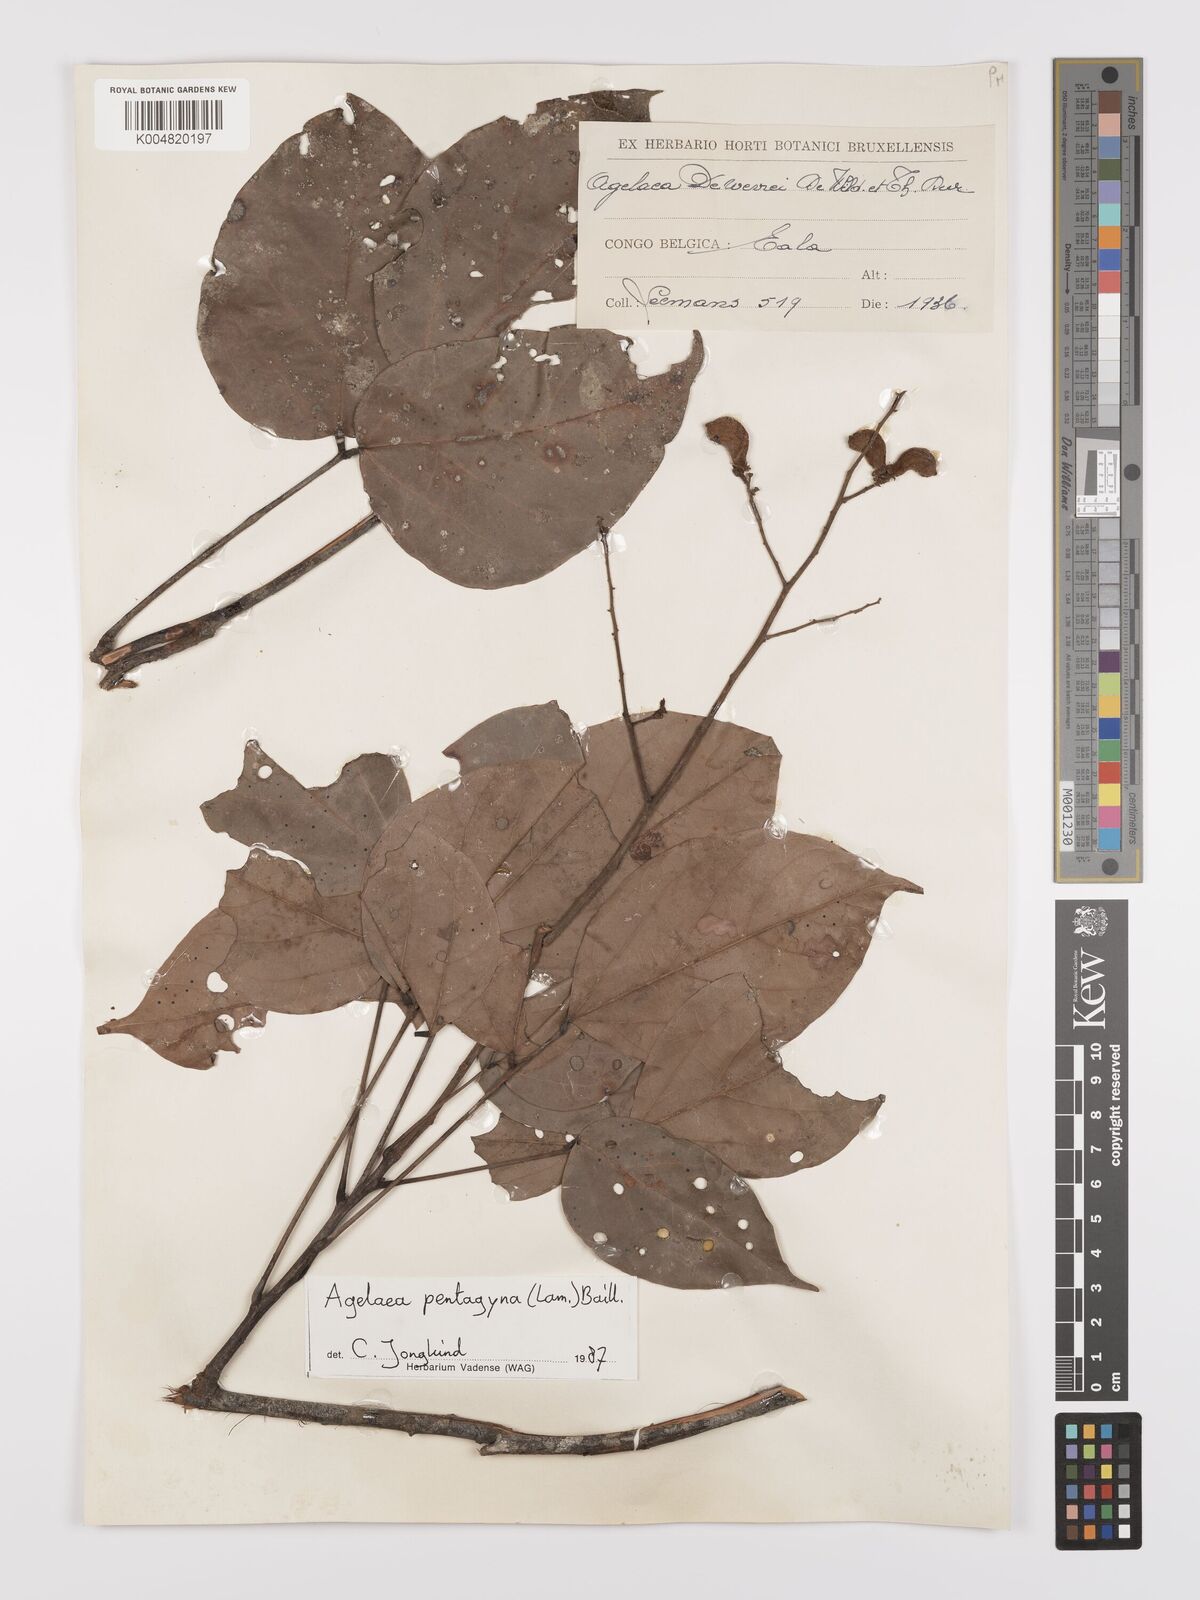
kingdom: Plantae
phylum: Tracheophyta
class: Magnoliopsida
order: Oxalidales
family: Connaraceae
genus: Agelaea
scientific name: Agelaea pentagyna
